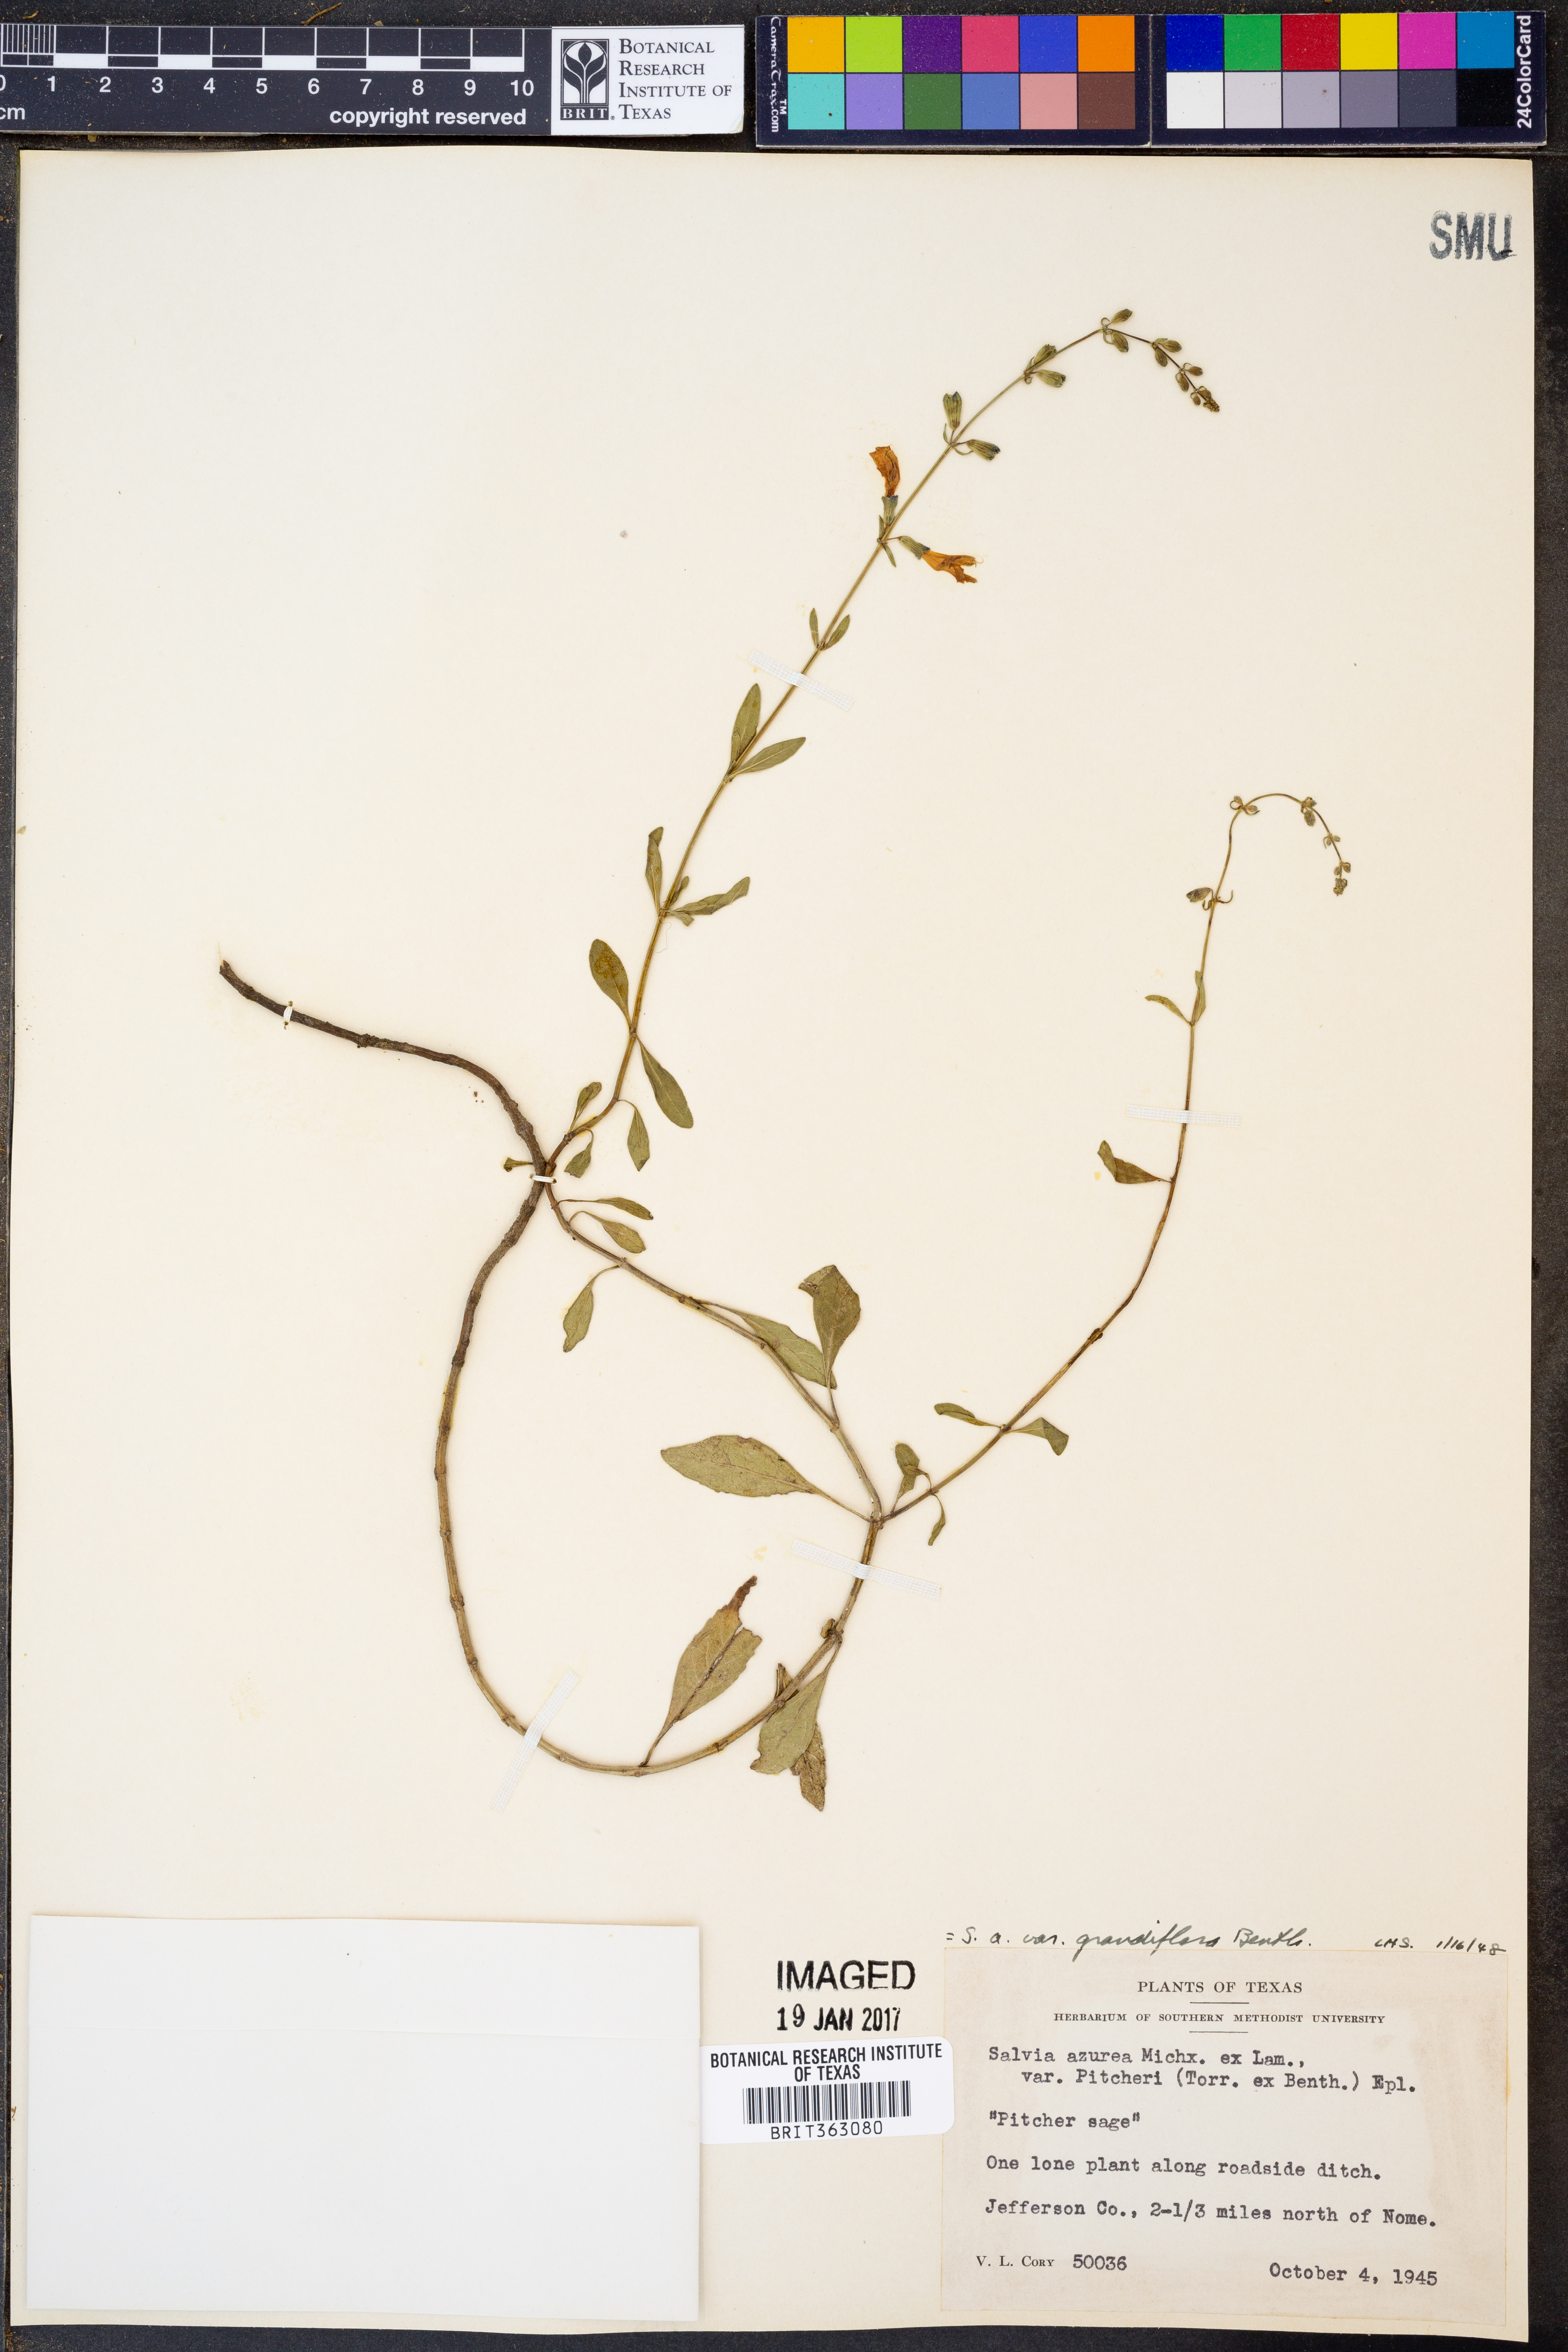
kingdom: Plantae
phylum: Tracheophyta
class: Magnoliopsida
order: Lamiales
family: Lamiaceae
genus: Salvia
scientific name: Salvia azurea
